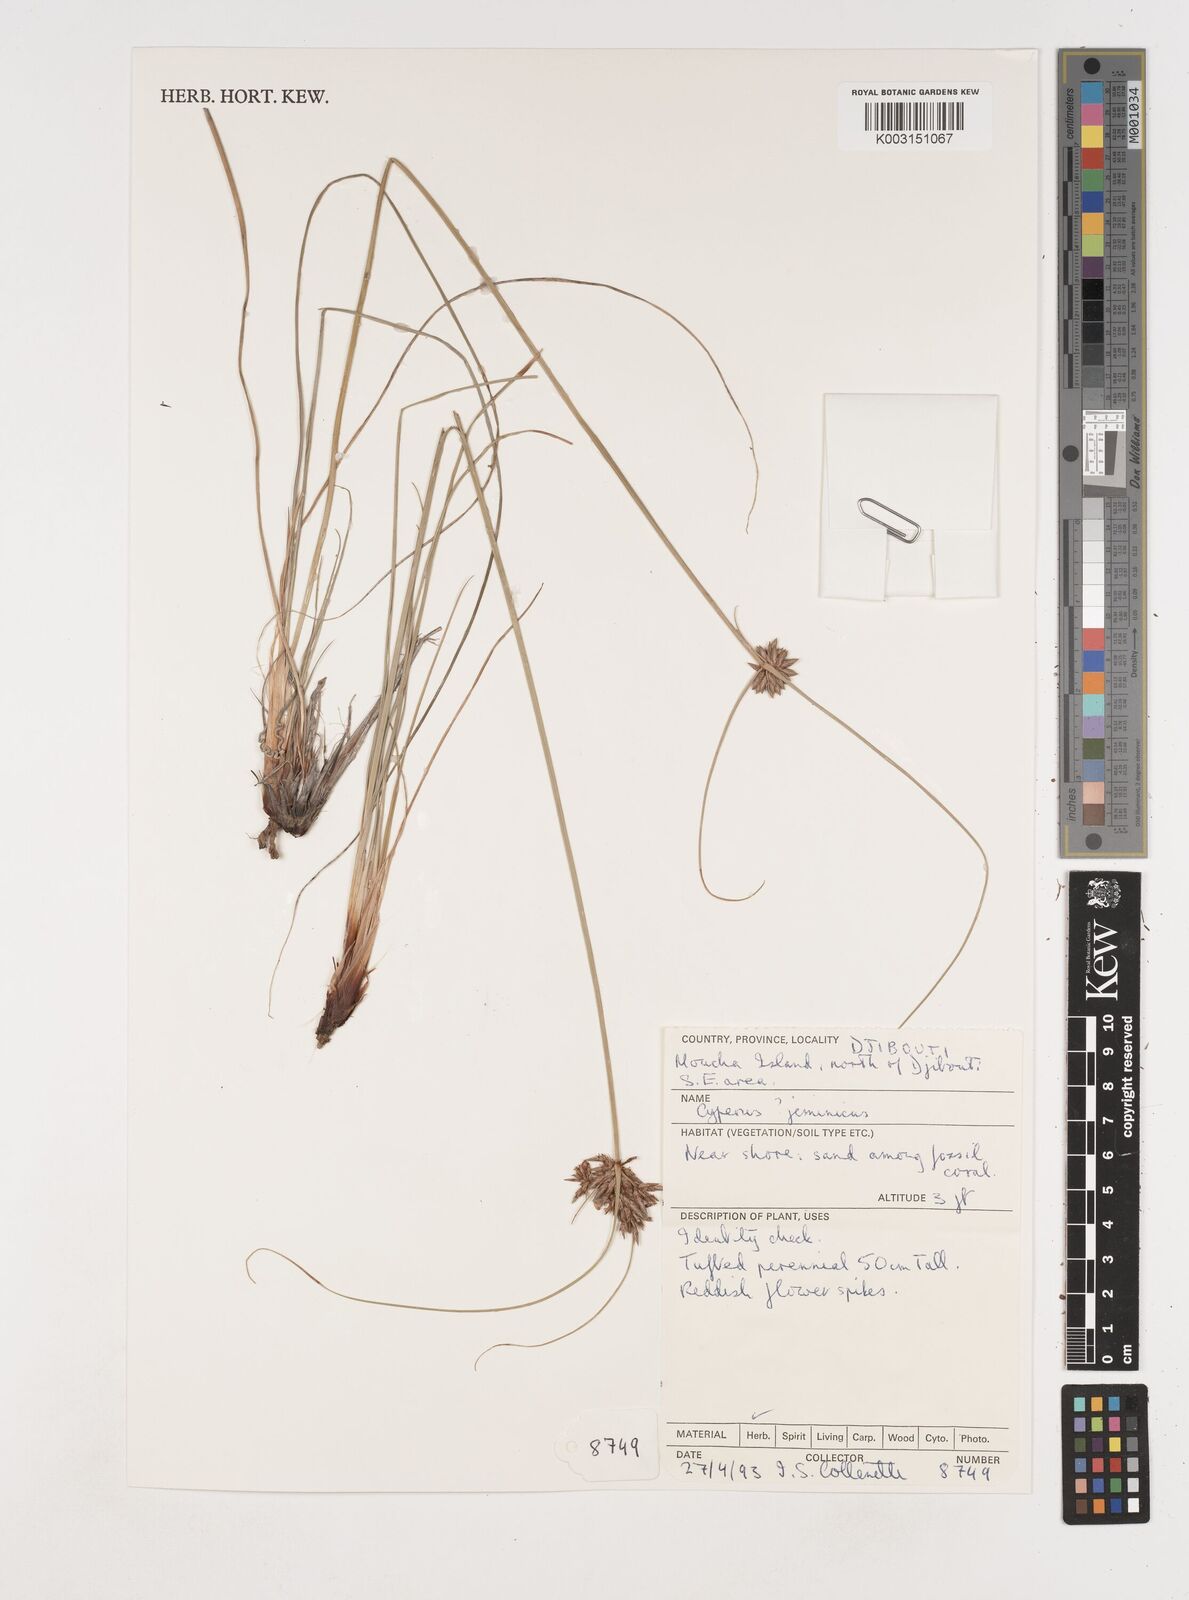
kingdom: Plantae
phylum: Tracheophyta
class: Liliopsida
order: Poales
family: Cyperaceae
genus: Cyperus
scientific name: Cyperus jeminicus
